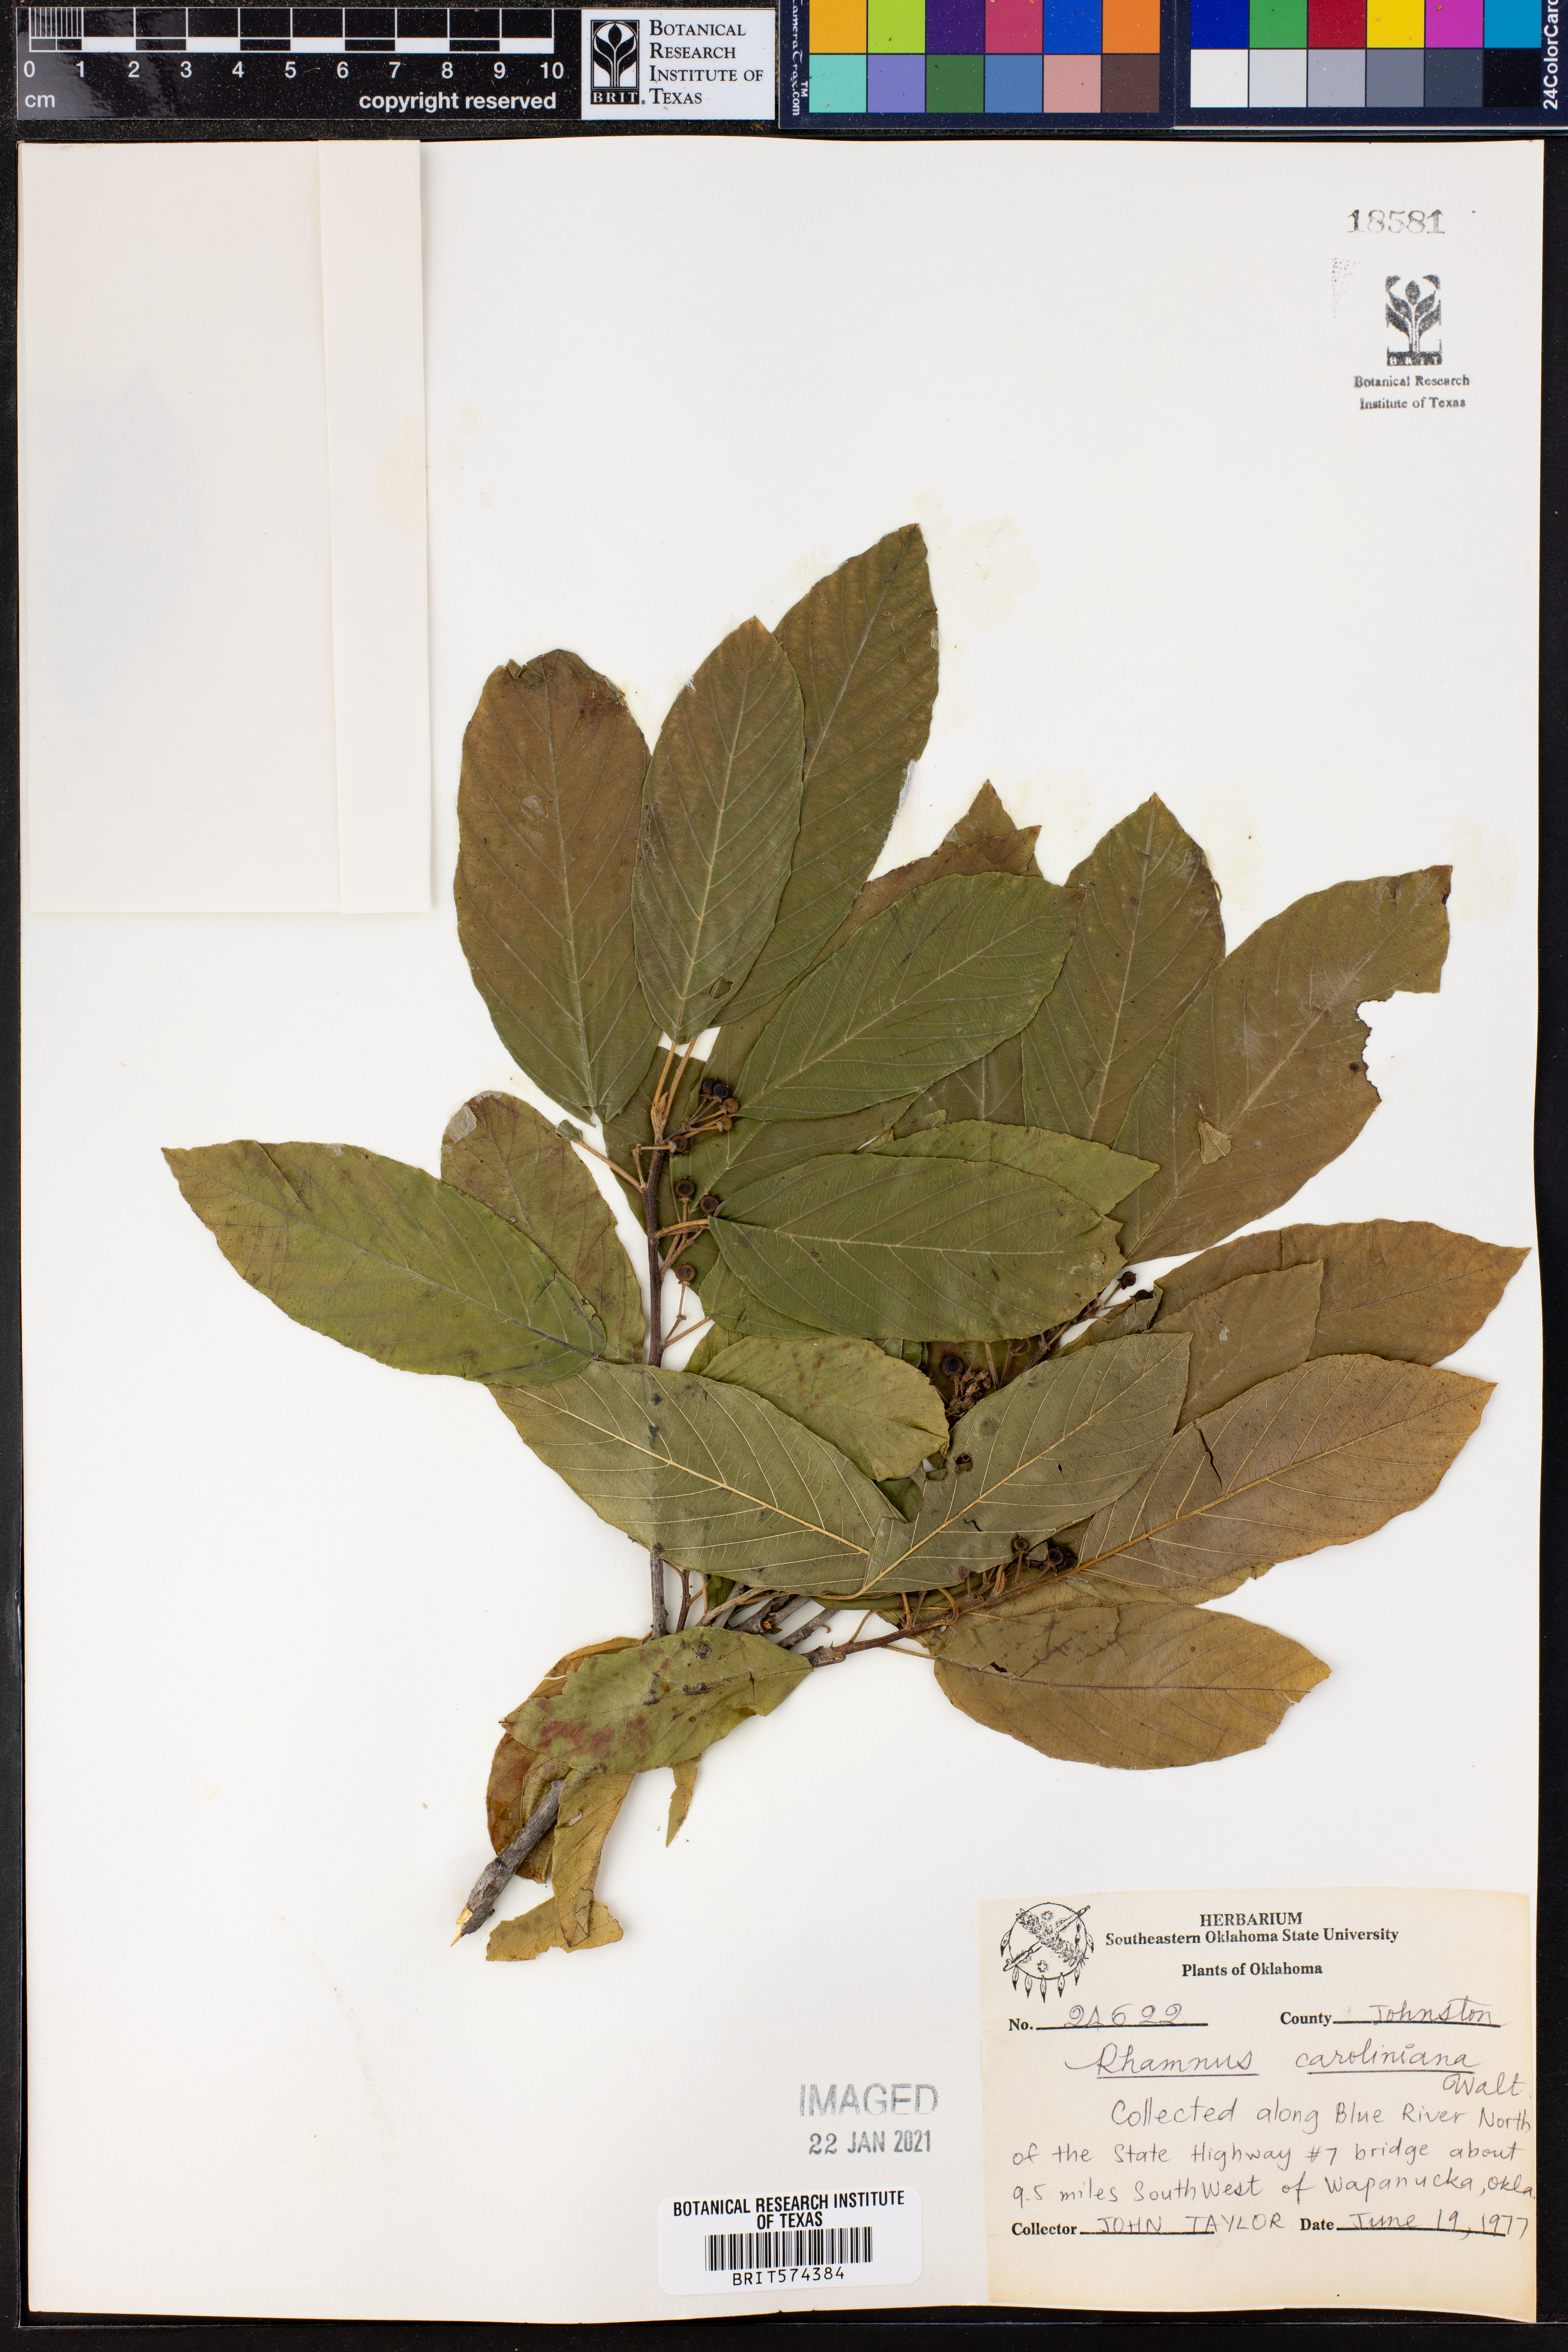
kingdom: Plantae
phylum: Tracheophyta
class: Magnoliopsida
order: Rosales
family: Rhamnaceae
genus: Frangula
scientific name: Frangula caroliniana
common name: Carolina buckthorn
